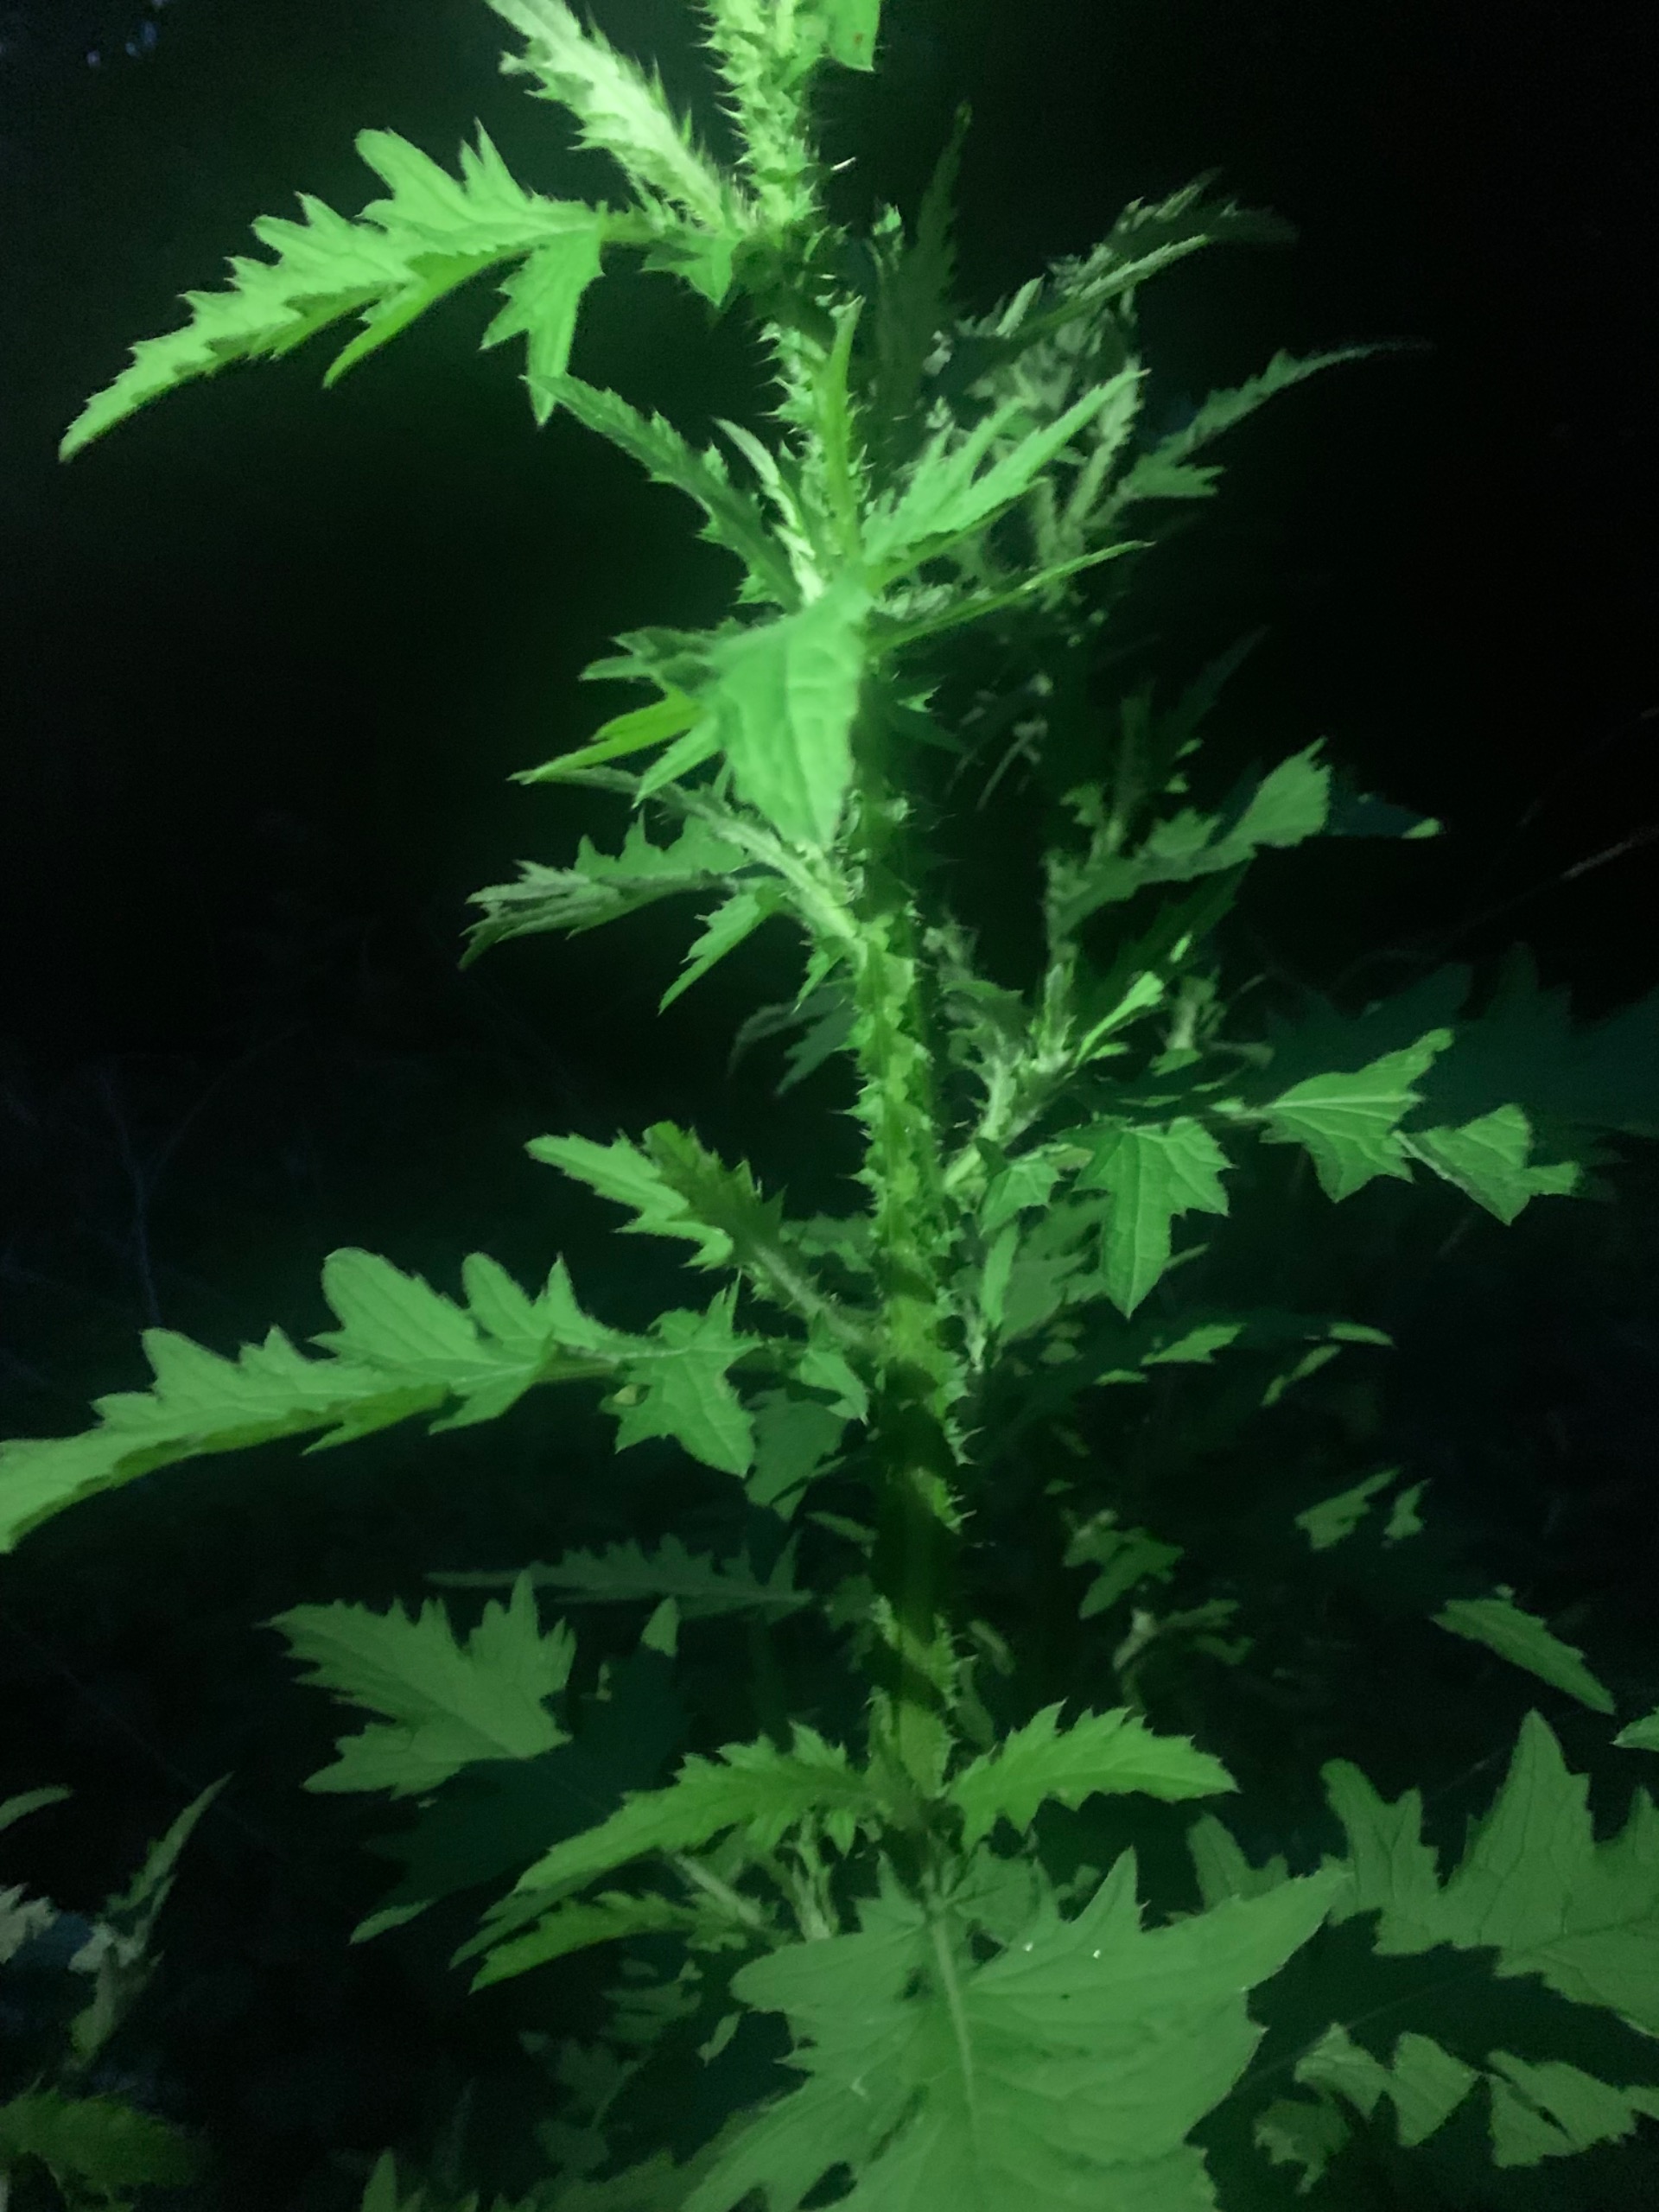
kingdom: Plantae
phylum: Tracheophyta
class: Magnoliopsida
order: Asterales
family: Asteraceae
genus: Carduus
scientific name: Carduus crispus
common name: Kruset tidsel
